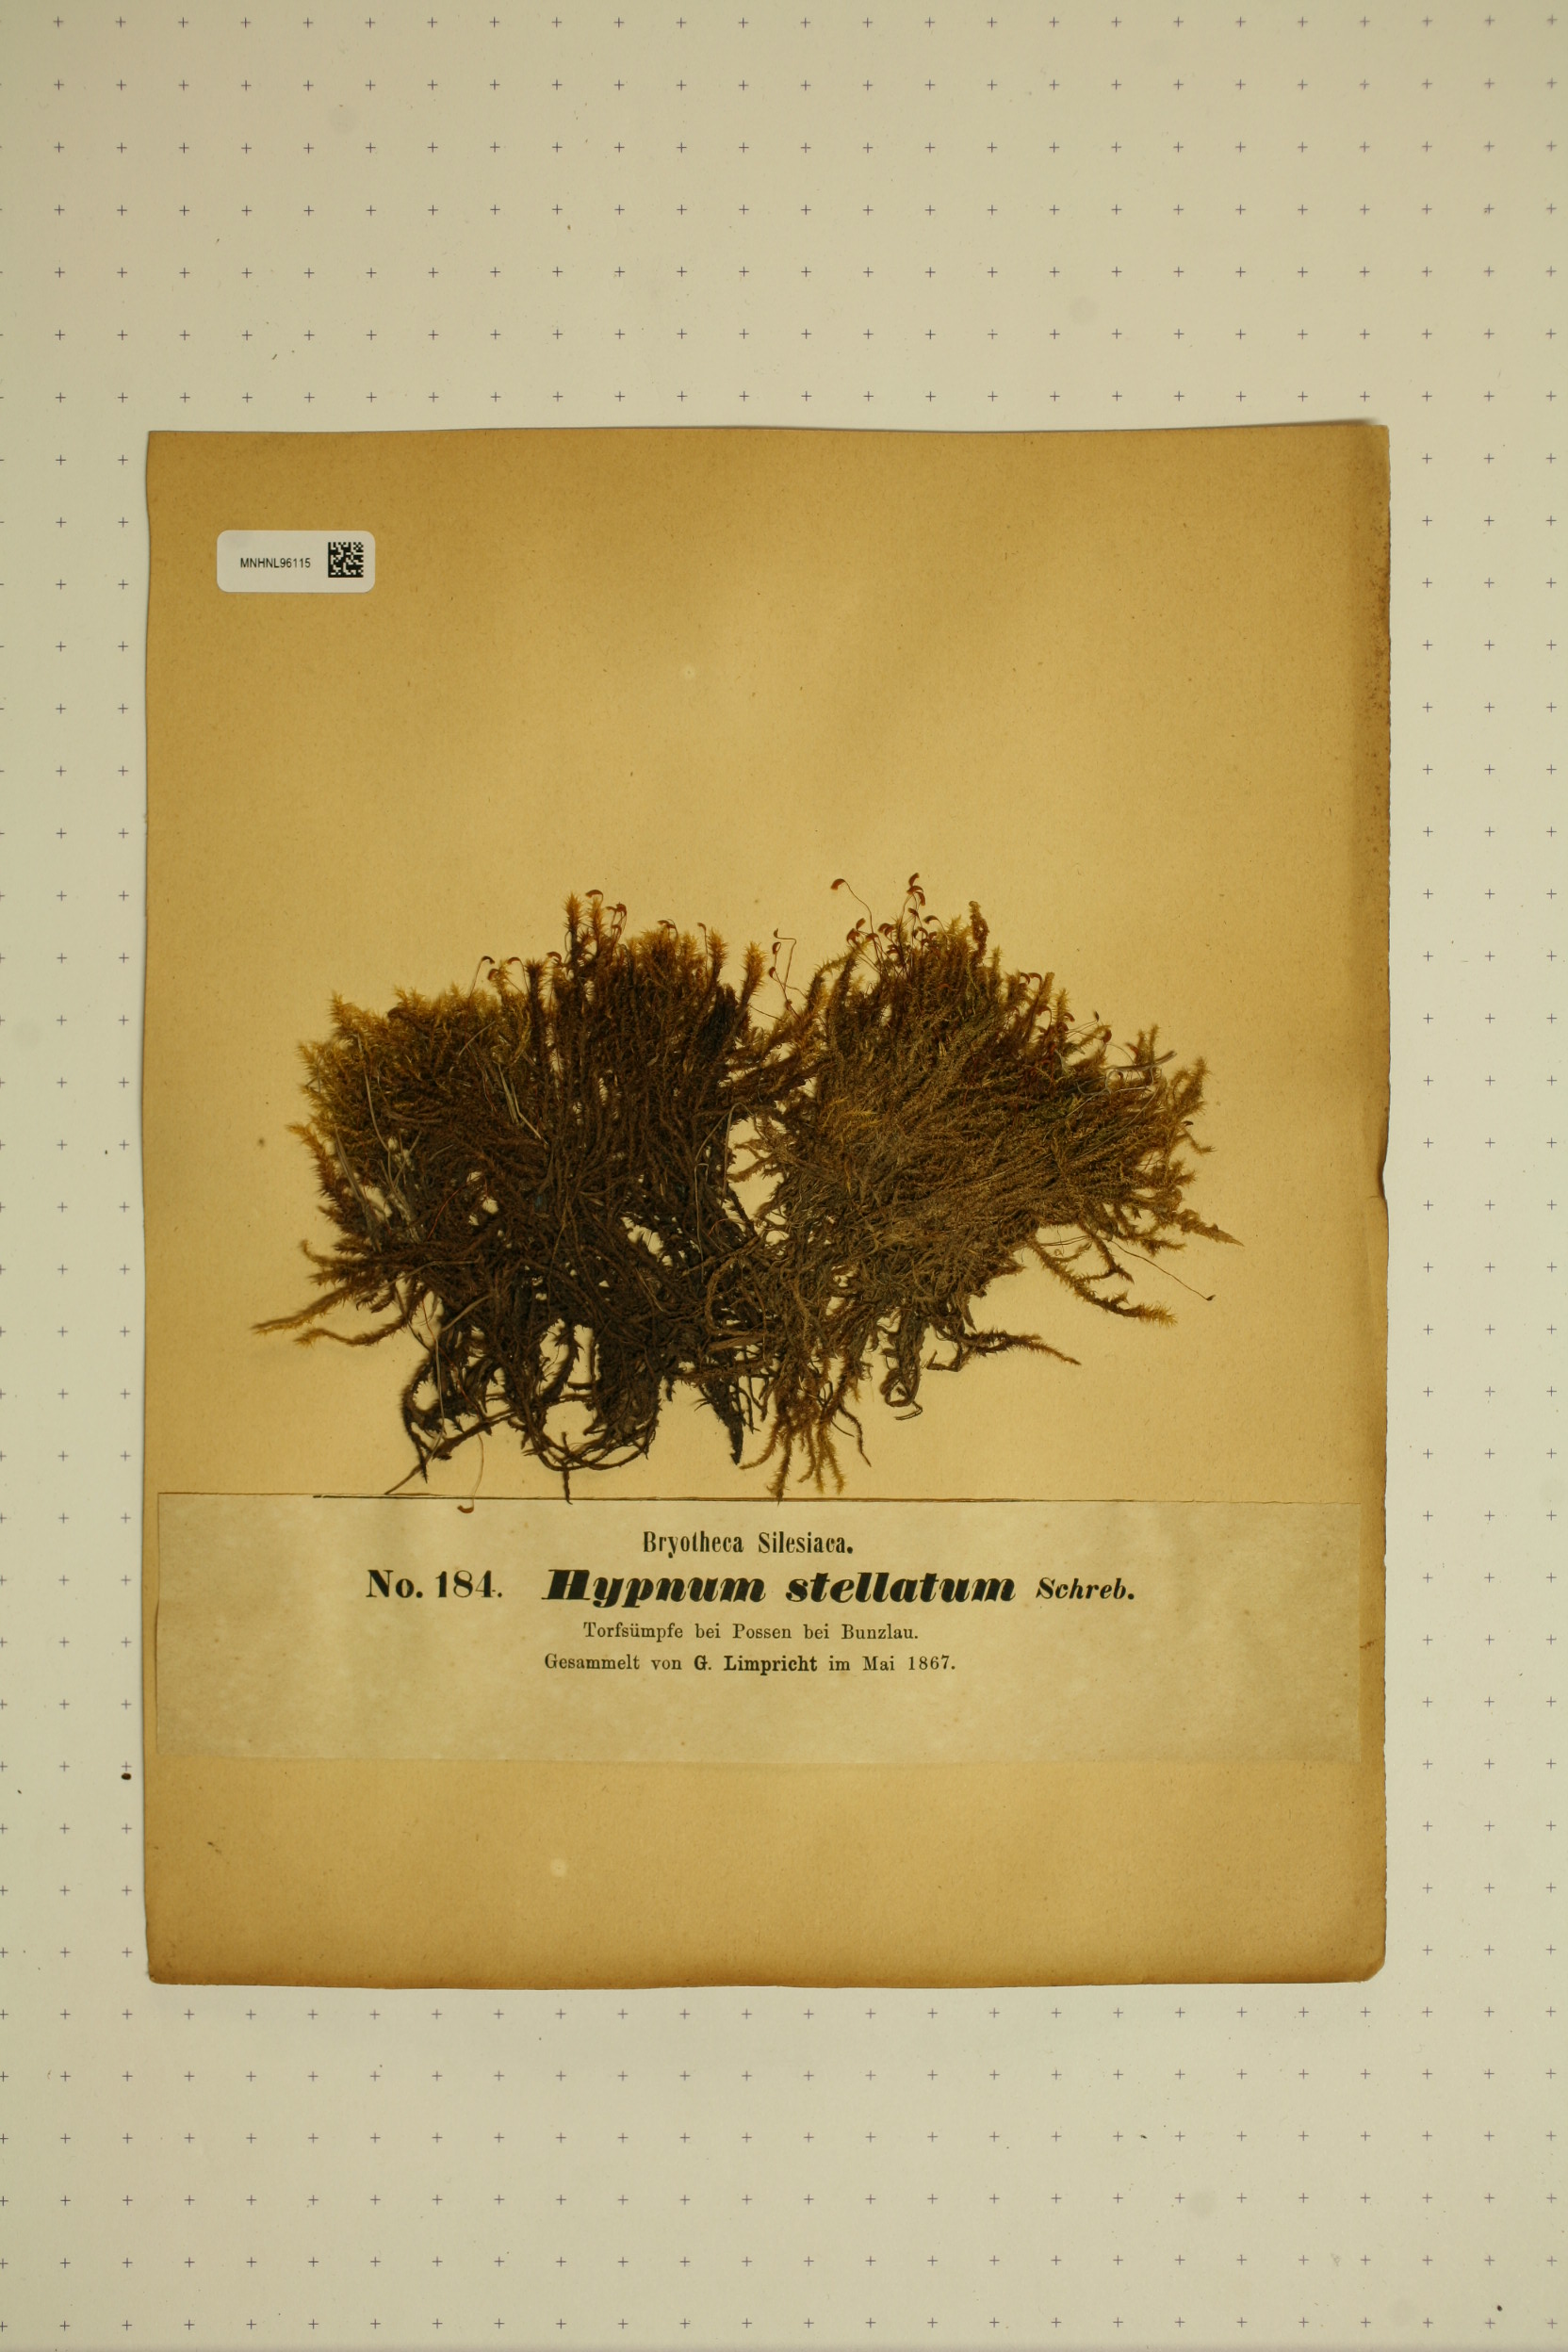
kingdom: Plantae
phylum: Bryophyta
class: Bryopsida
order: Hypnales
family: Amblystegiaceae
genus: Campylium
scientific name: Campylium stellatum
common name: Yellow starry fen moss
